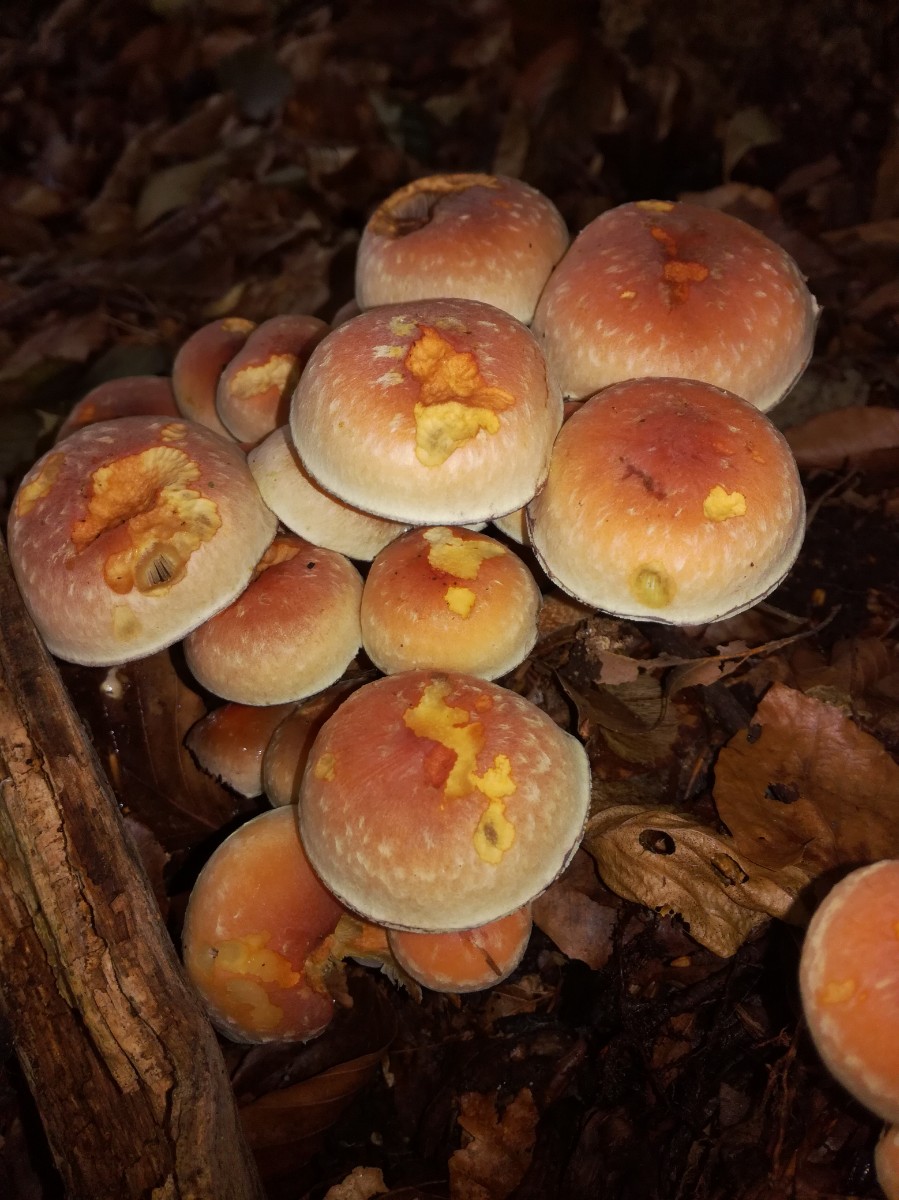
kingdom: Fungi
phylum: Basidiomycota
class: Agaricomycetes
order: Agaricales
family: Strophariaceae
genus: Hypholoma
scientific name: Hypholoma lateritium
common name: teglrød svovlhat
